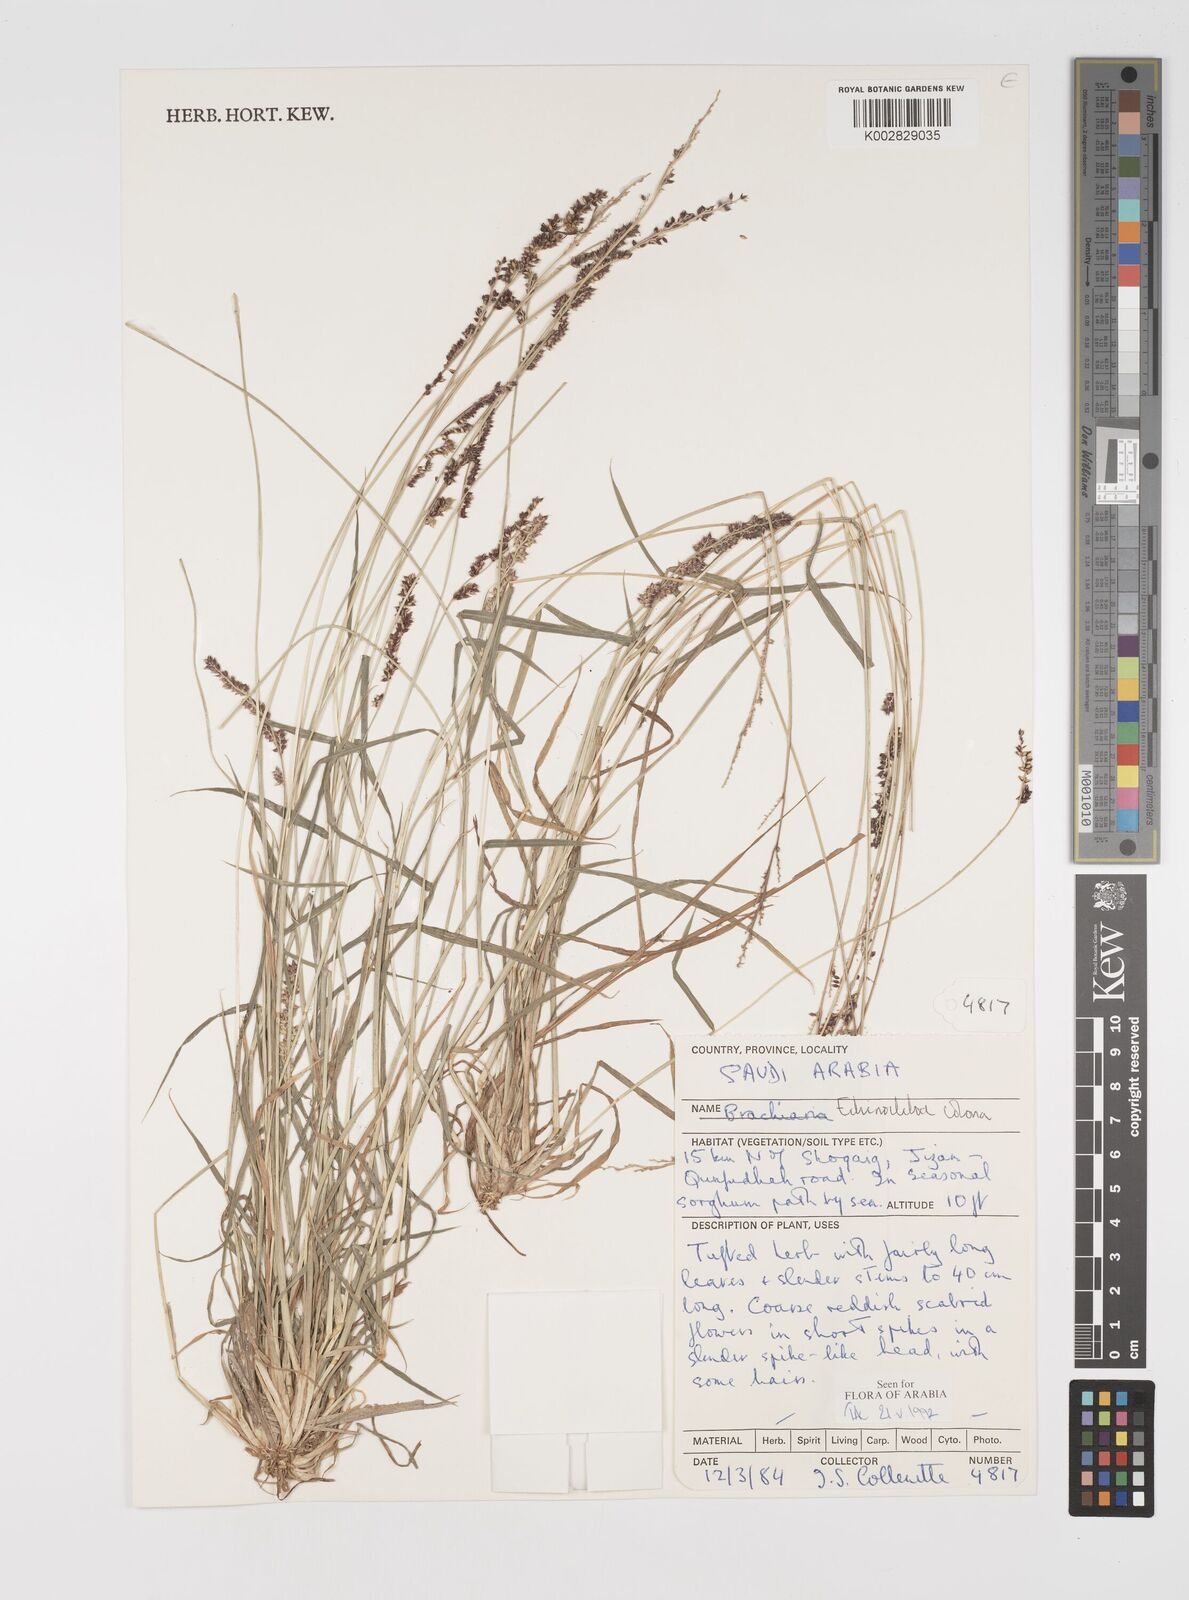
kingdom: Plantae
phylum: Tracheophyta
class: Liliopsida
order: Poales
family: Poaceae
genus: Echinochloa
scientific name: Echinochloa colonum
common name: Jungle rice
